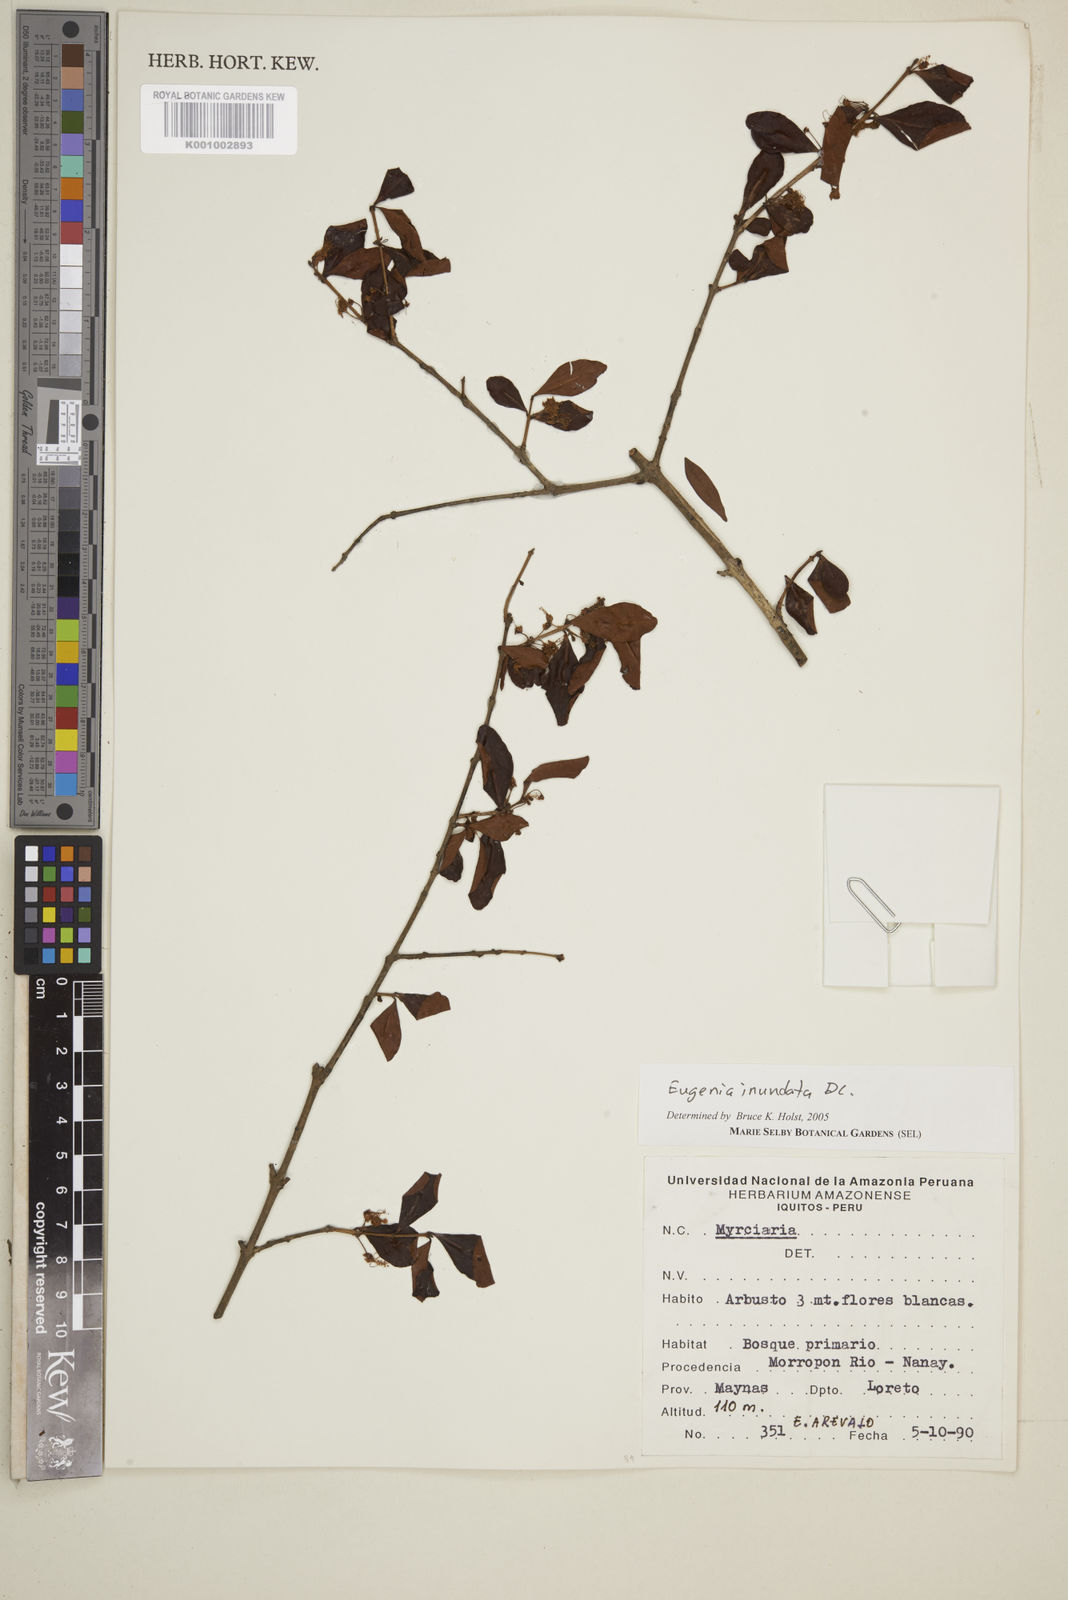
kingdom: Plantae
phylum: Tracheophyta
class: Magnoliopsida
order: Myrtales
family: Myrtaceae
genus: Eugenia
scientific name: Eugenia inundata
